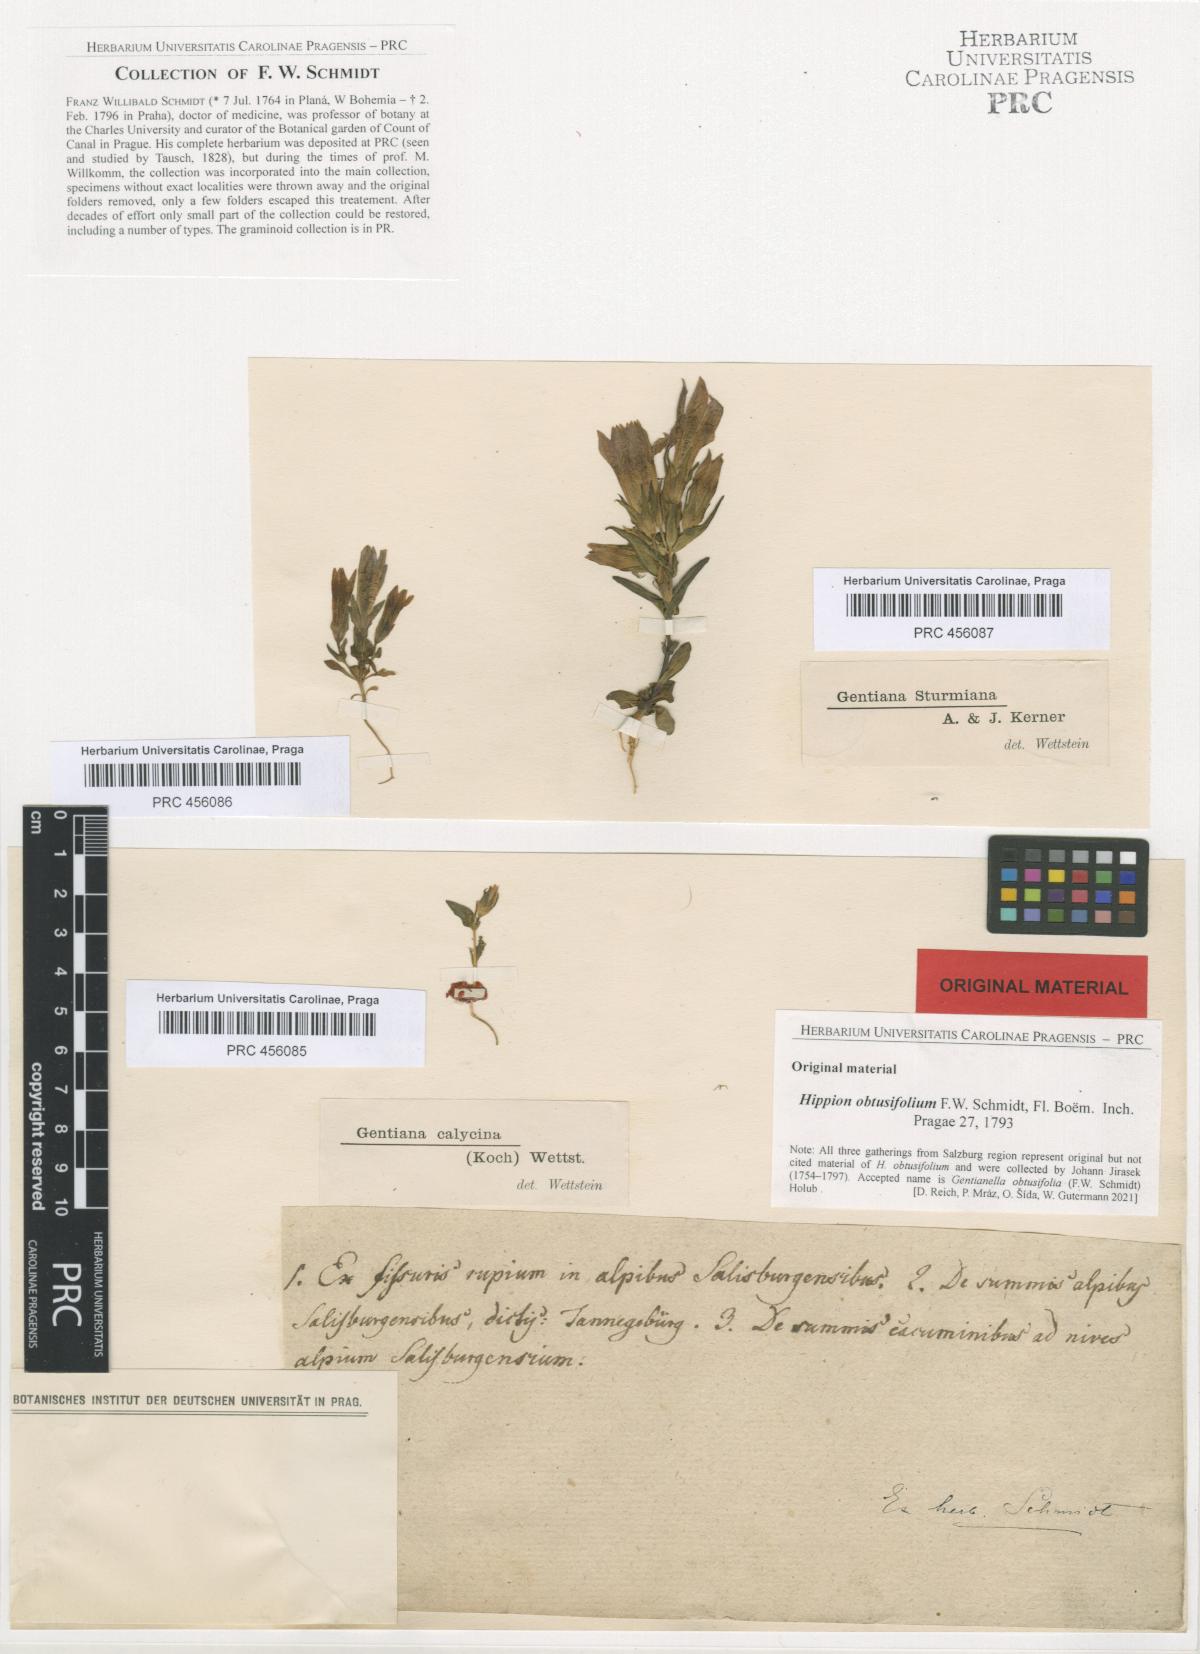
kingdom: Plantae
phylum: Tracheophyta
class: Magnoliopsida
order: Gentianales
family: Gentianaceae
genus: Gentianella
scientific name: Gentianella obtusifolia
